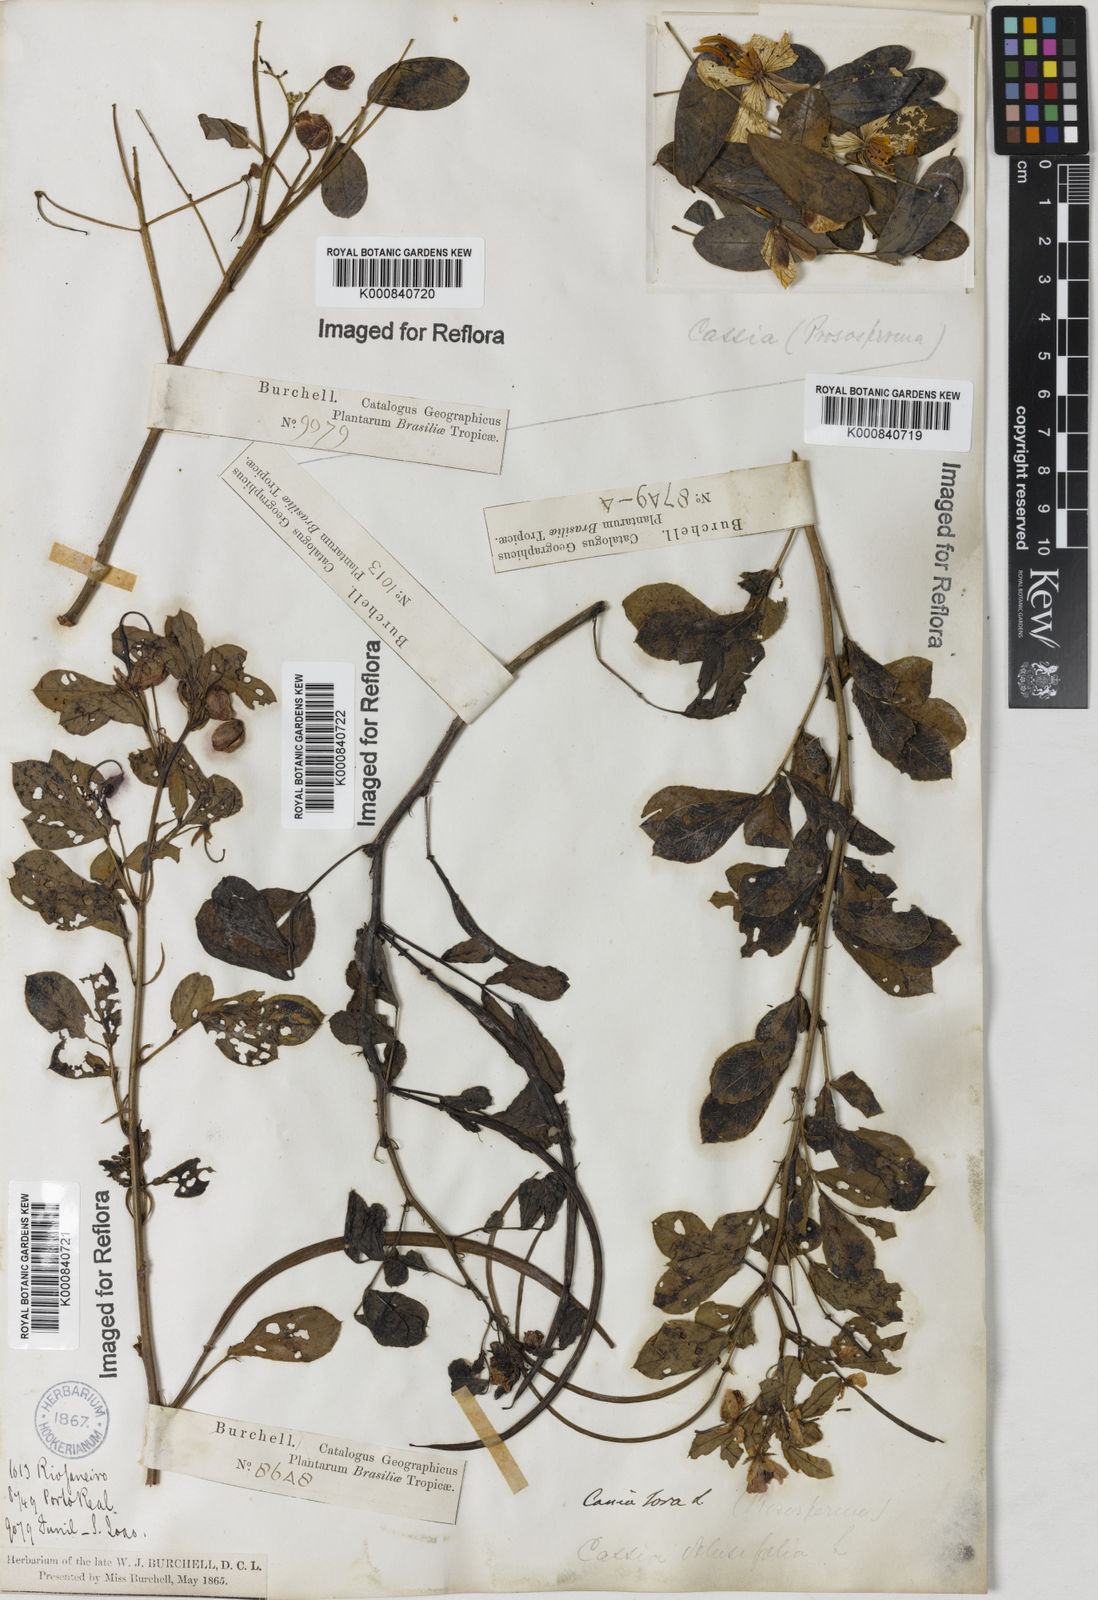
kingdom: Plantae
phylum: Tracheophyta
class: Magnoliopsida
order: Fabales
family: Fabaceae
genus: Senna
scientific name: Senna obtusifolia
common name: Java-bean
